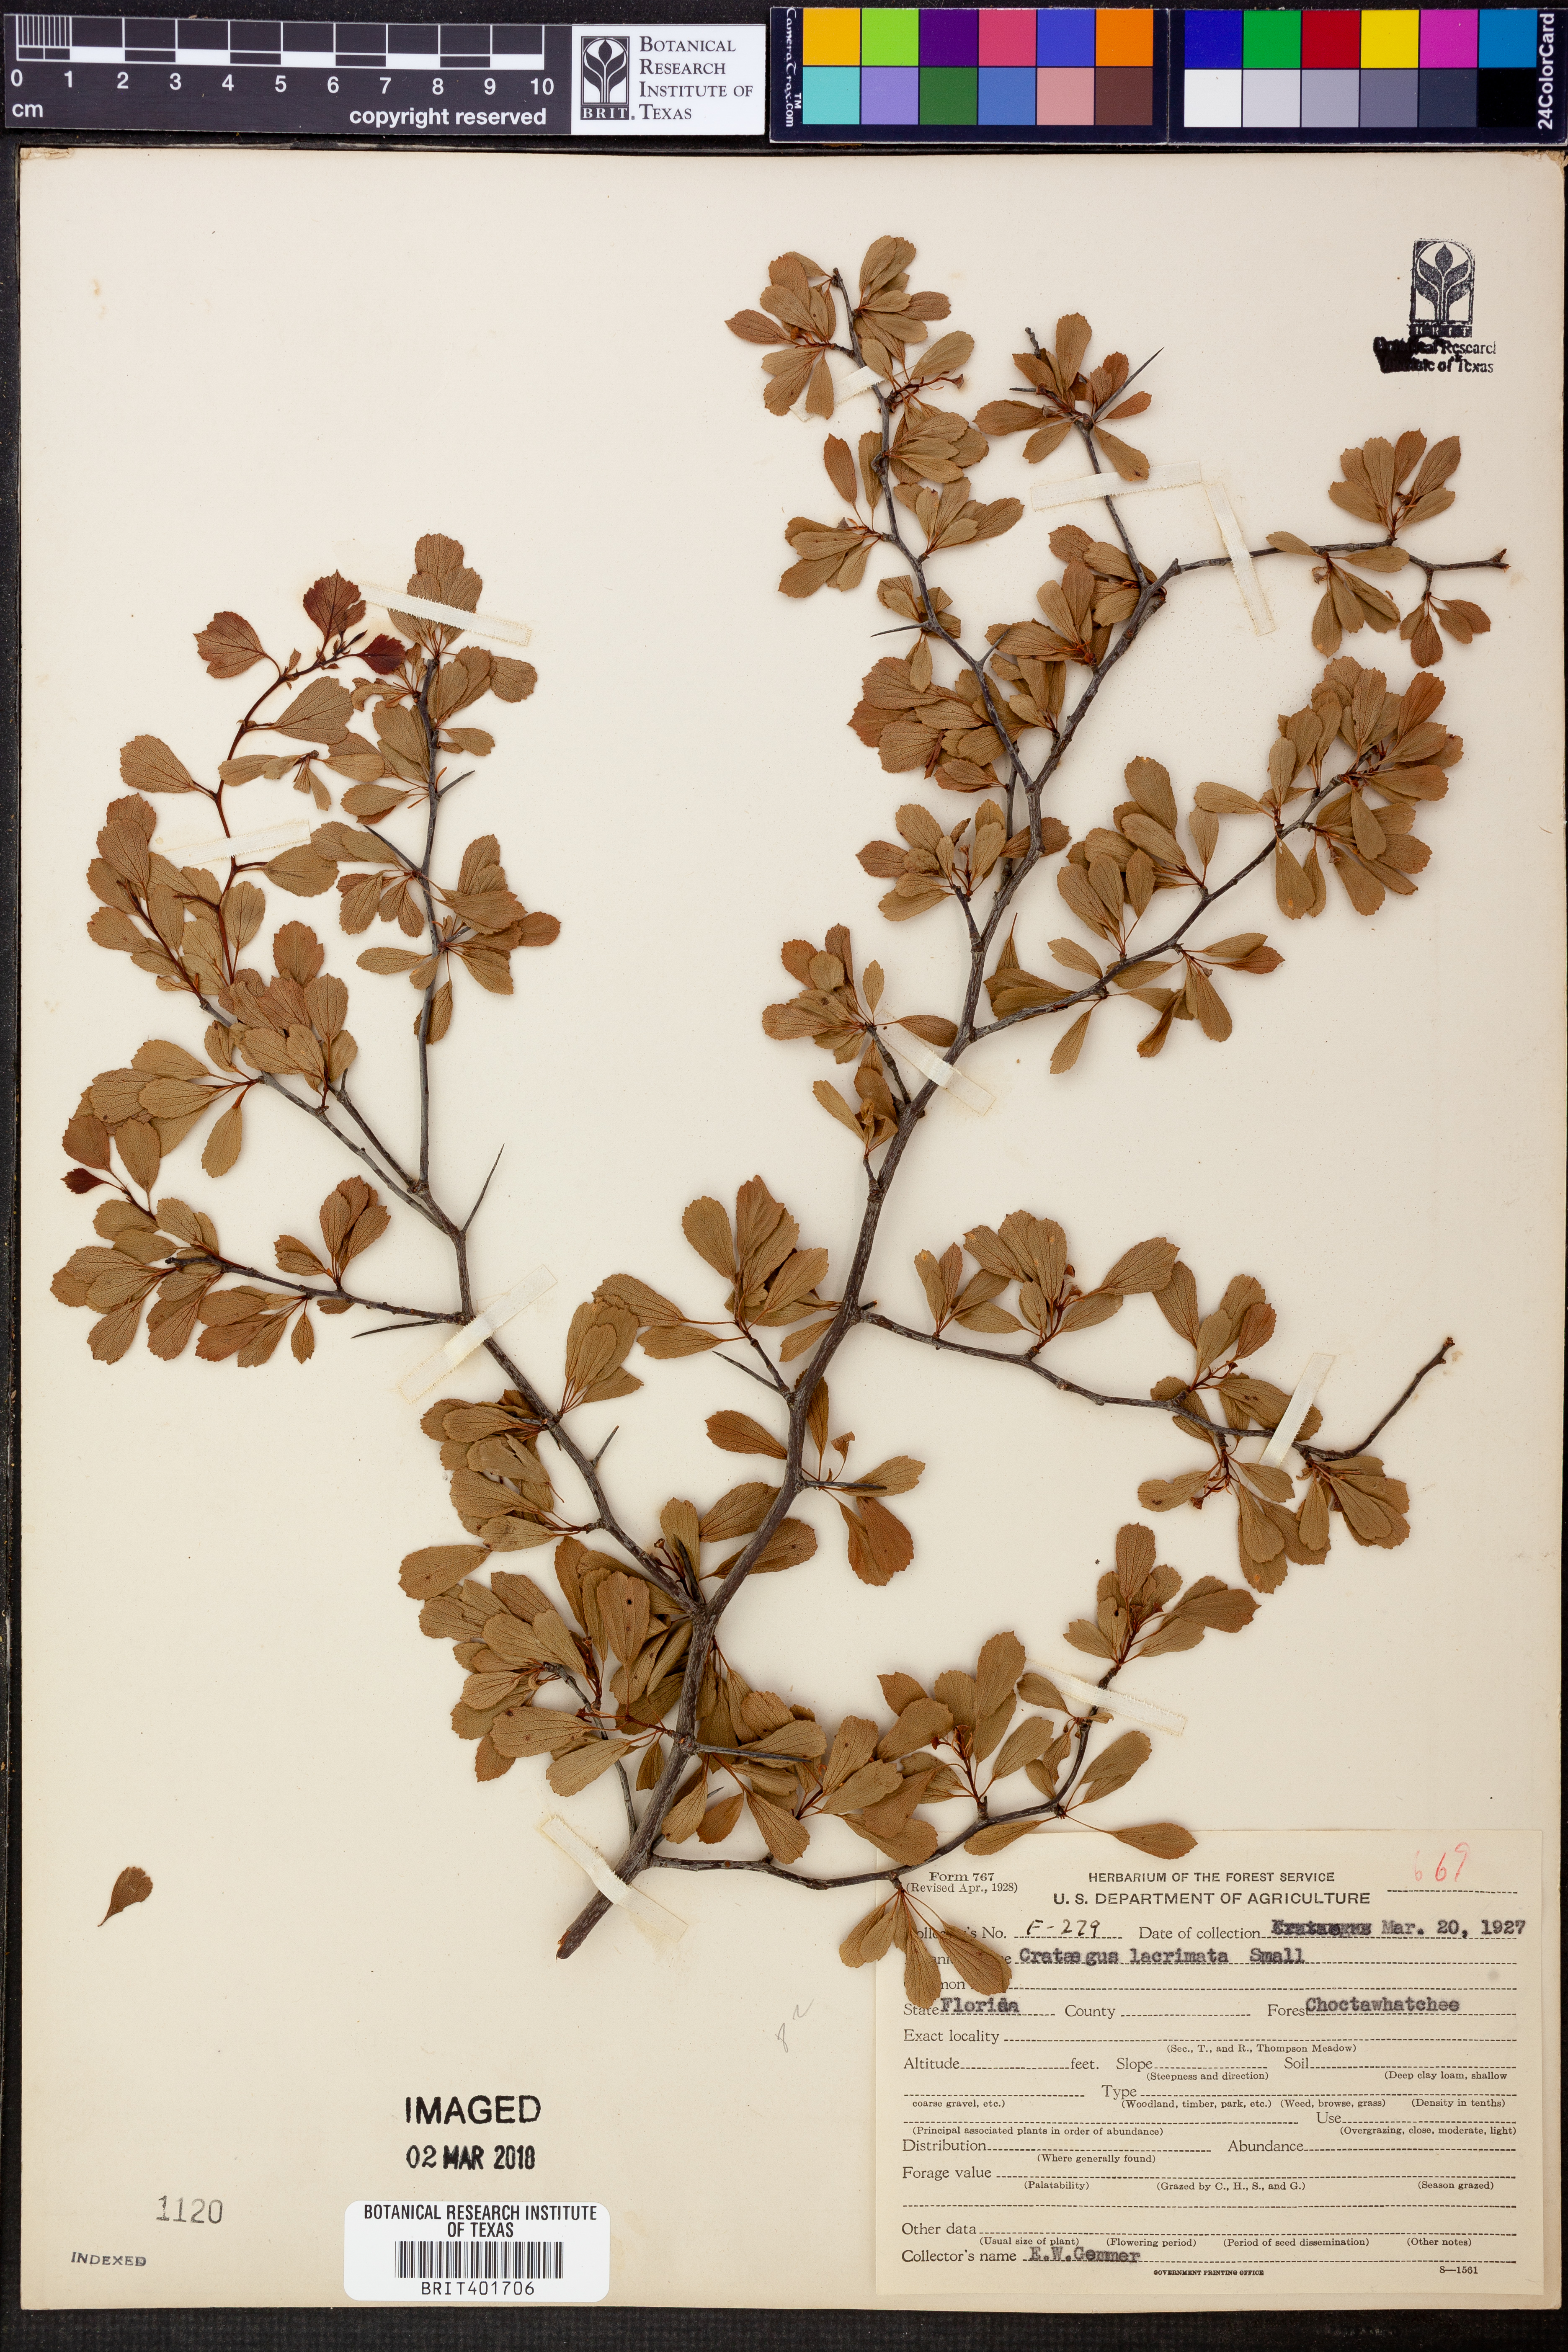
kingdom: Plantae
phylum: Tracheophyta
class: Magnoliopsida
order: Rosales
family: Rosaceae
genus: Crataegus
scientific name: Crataegus lacrimata
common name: Weeping hawthorn
